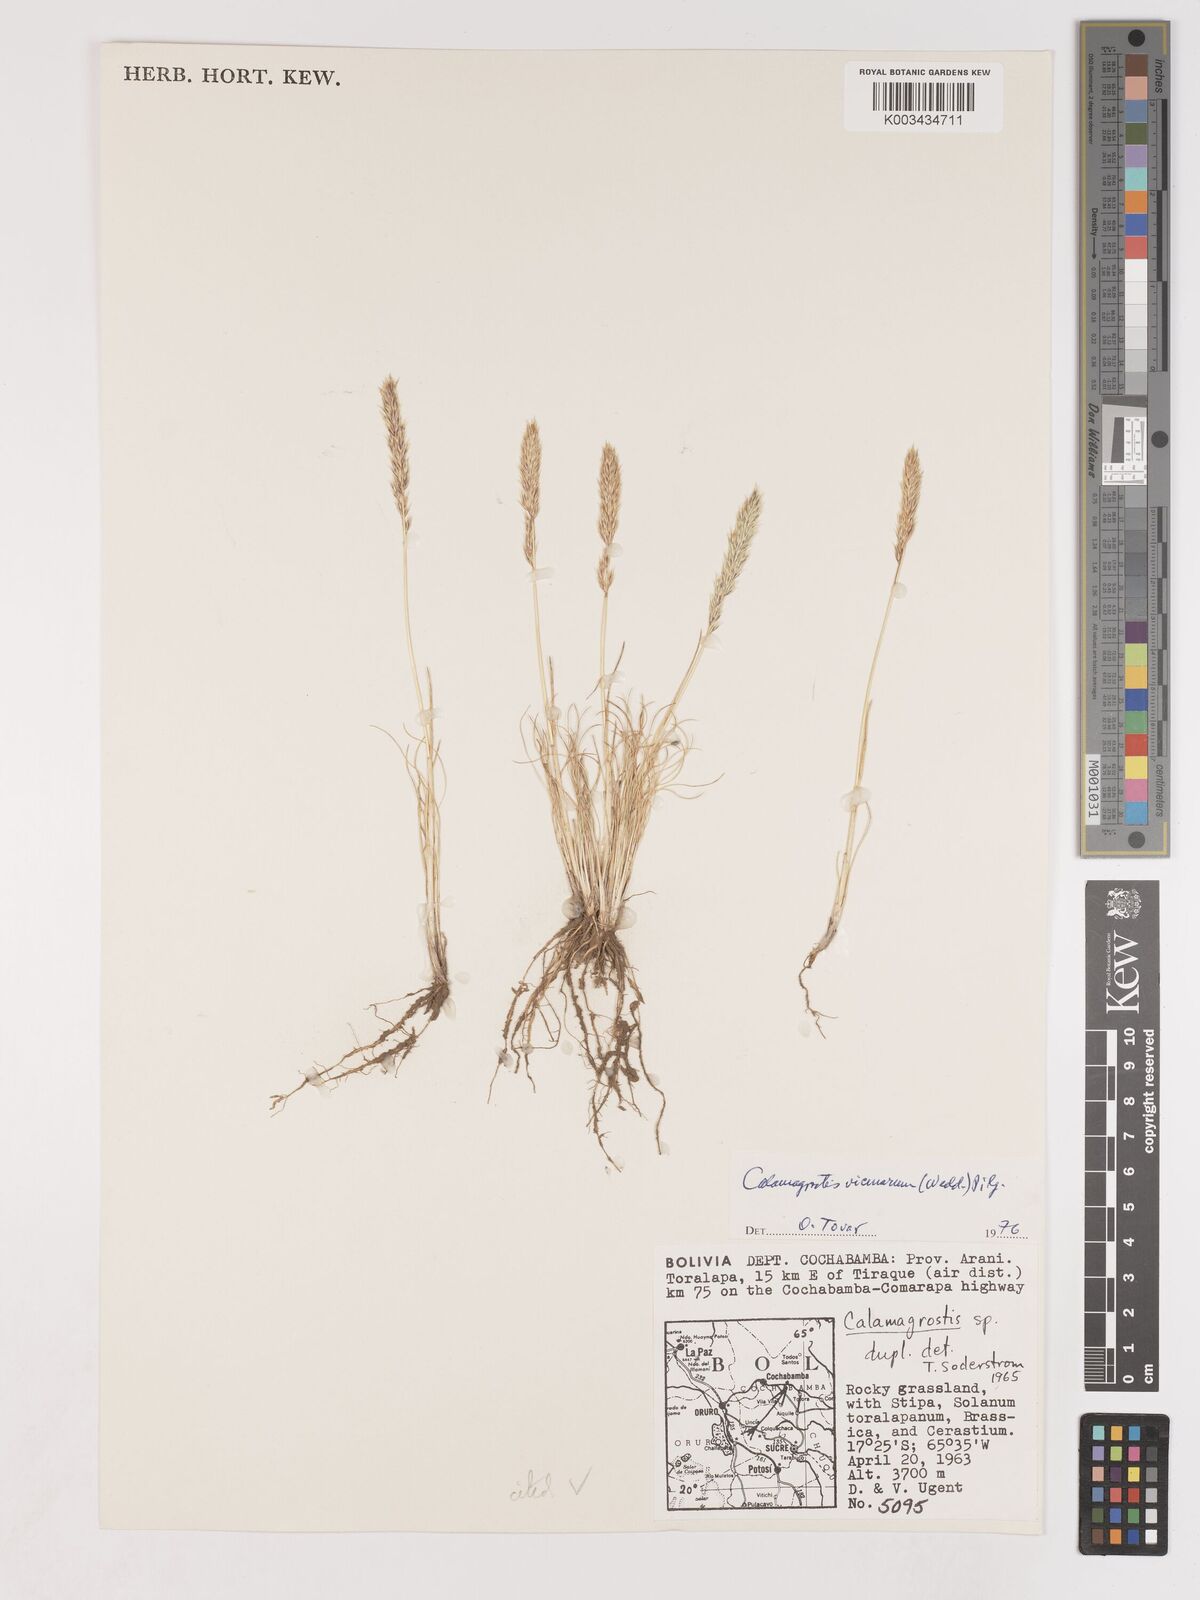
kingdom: Plantae
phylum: Tracheophyta
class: Liliopsida
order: Poales
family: Poaceae
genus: Cinnagrostis
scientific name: Cinnagrostis vicunarum
